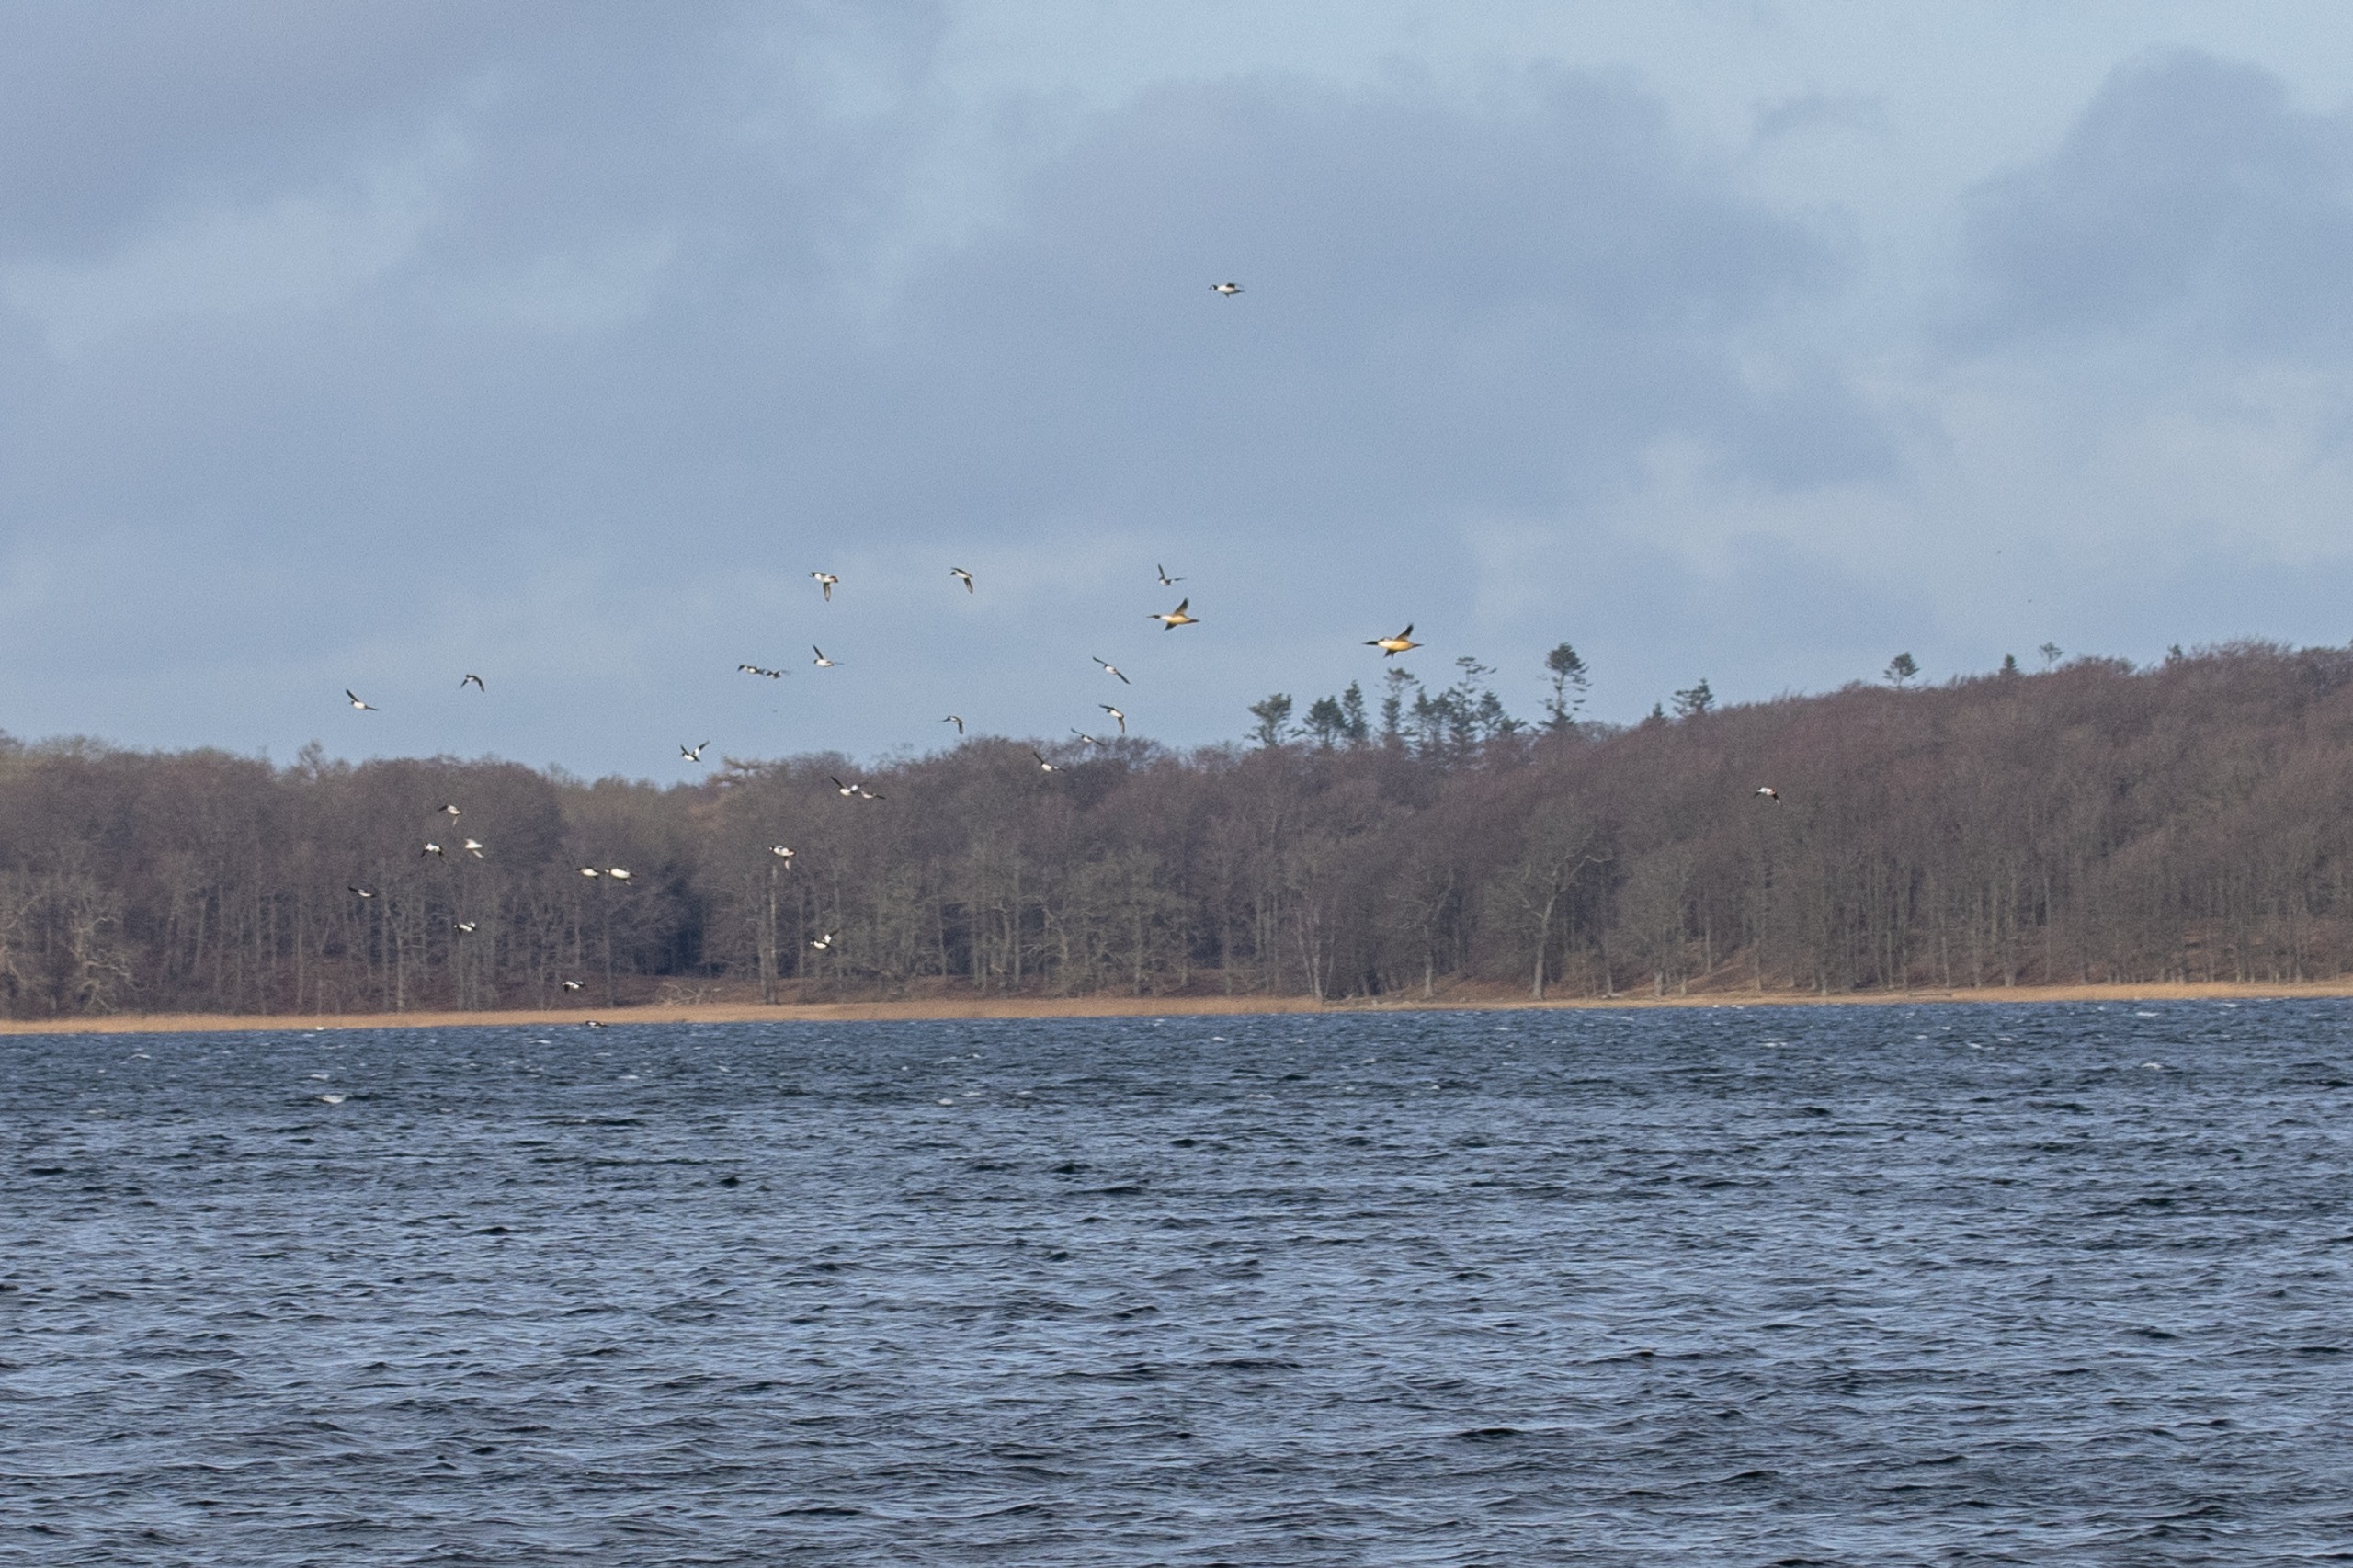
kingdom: Animalia
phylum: Chordata
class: Aves
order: Anseriformes
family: Anatidae
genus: Mergus
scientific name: Mergus merganser
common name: Stor skallesluger
